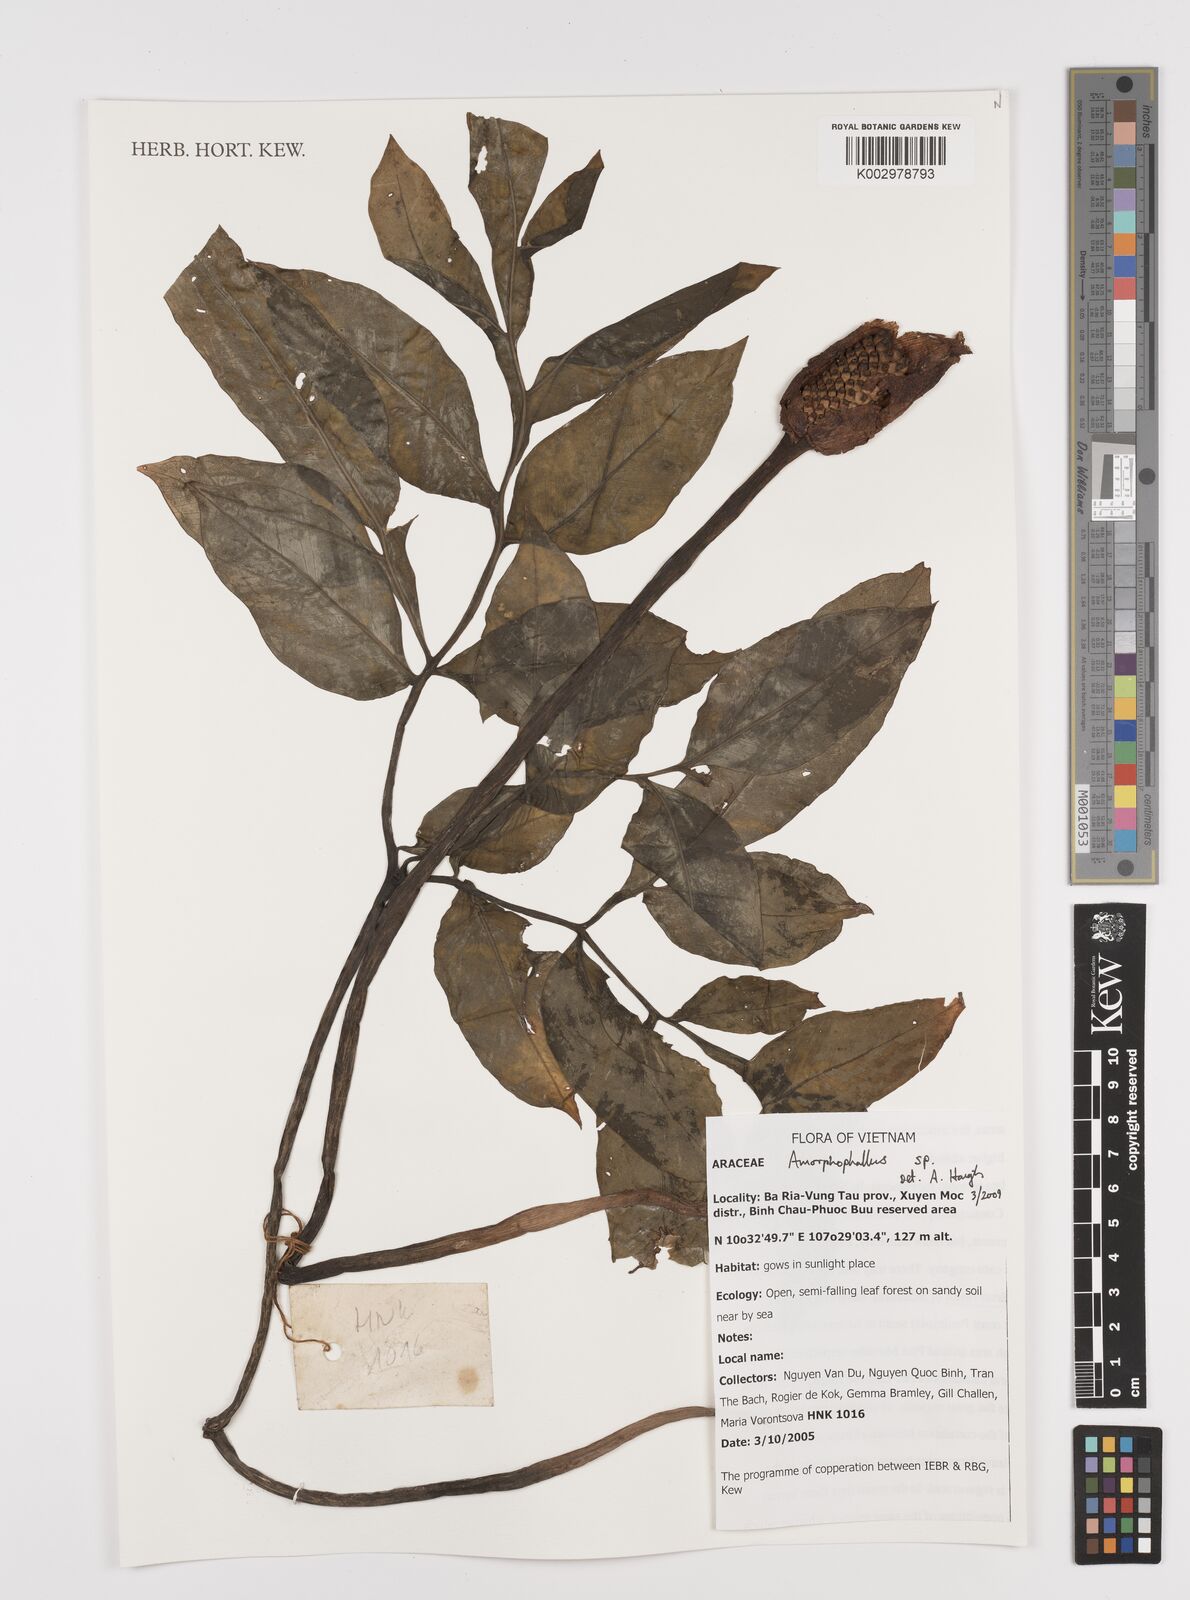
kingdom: Plantae
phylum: Tracheophyta
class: Liliopsida
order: Alismatales
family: Araceae
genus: Amorphophallus
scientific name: Amorphophallus
